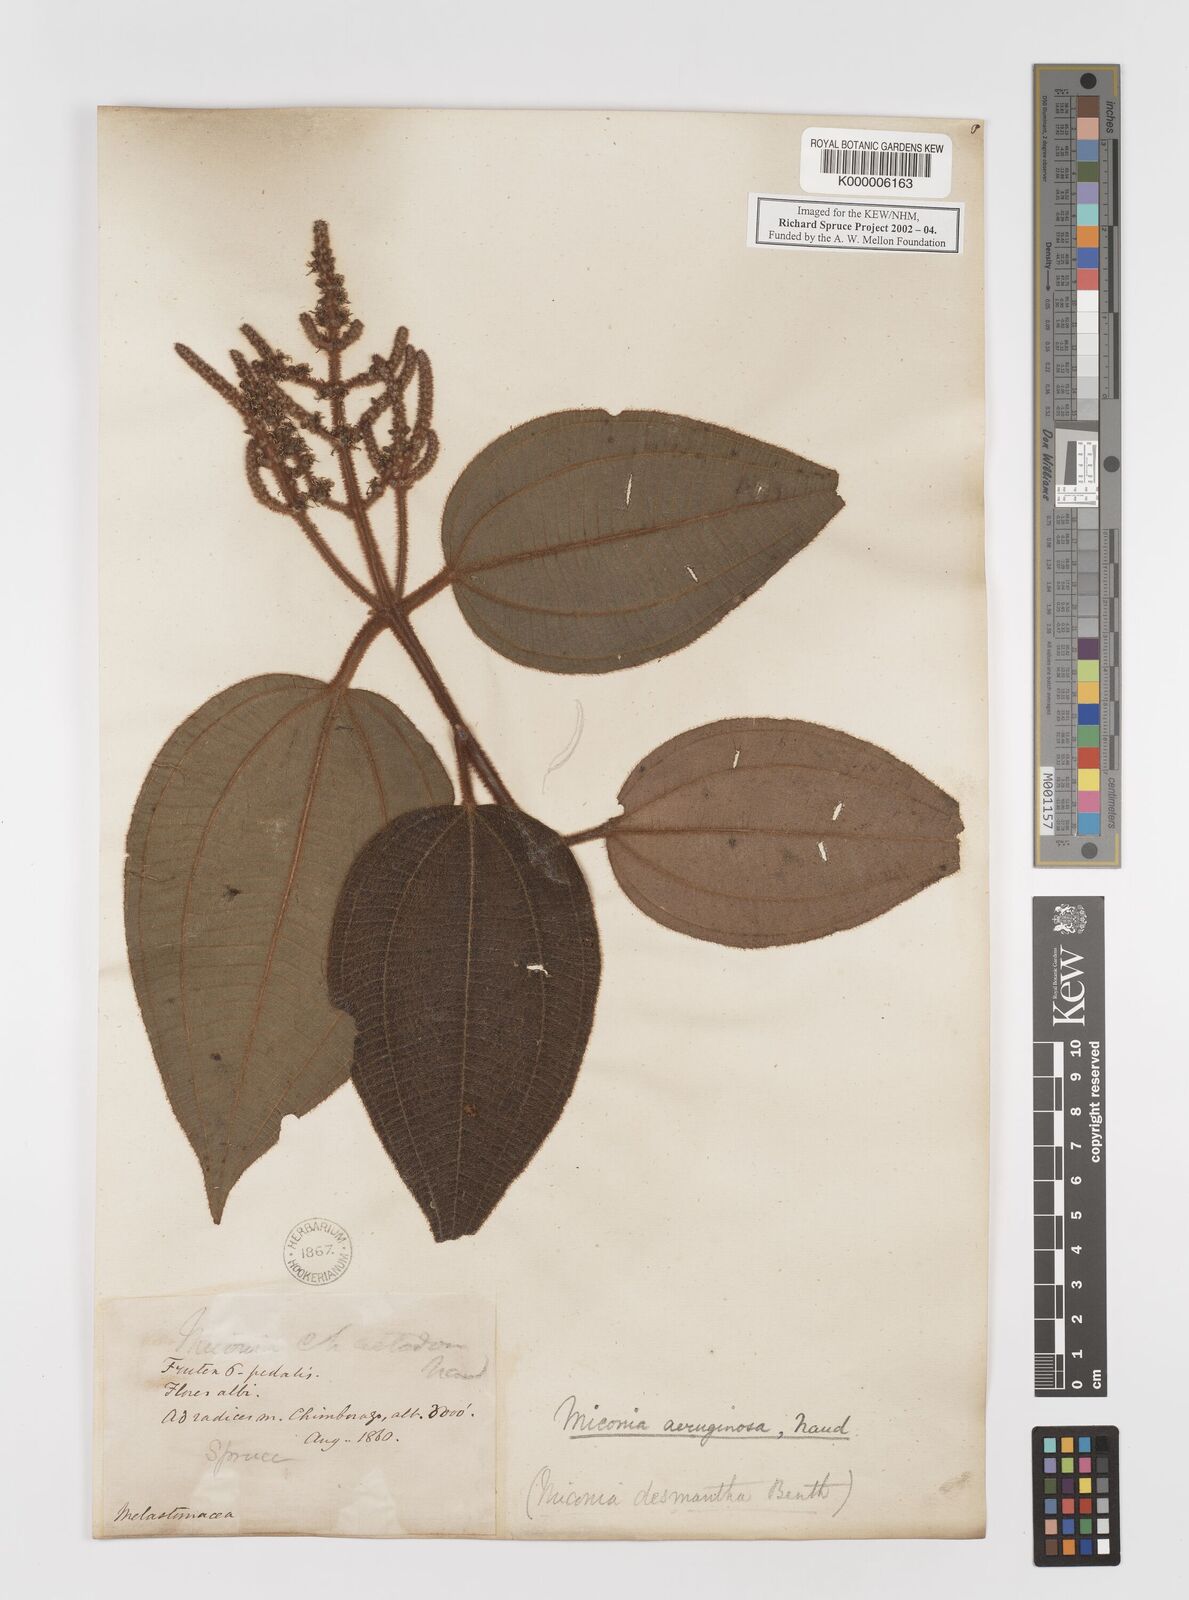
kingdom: Plantae
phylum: Tracheophyta
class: Magnoliopsida
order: Myrtales
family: Melastomataceae
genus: Miconia
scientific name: Miconia aeruginosa
